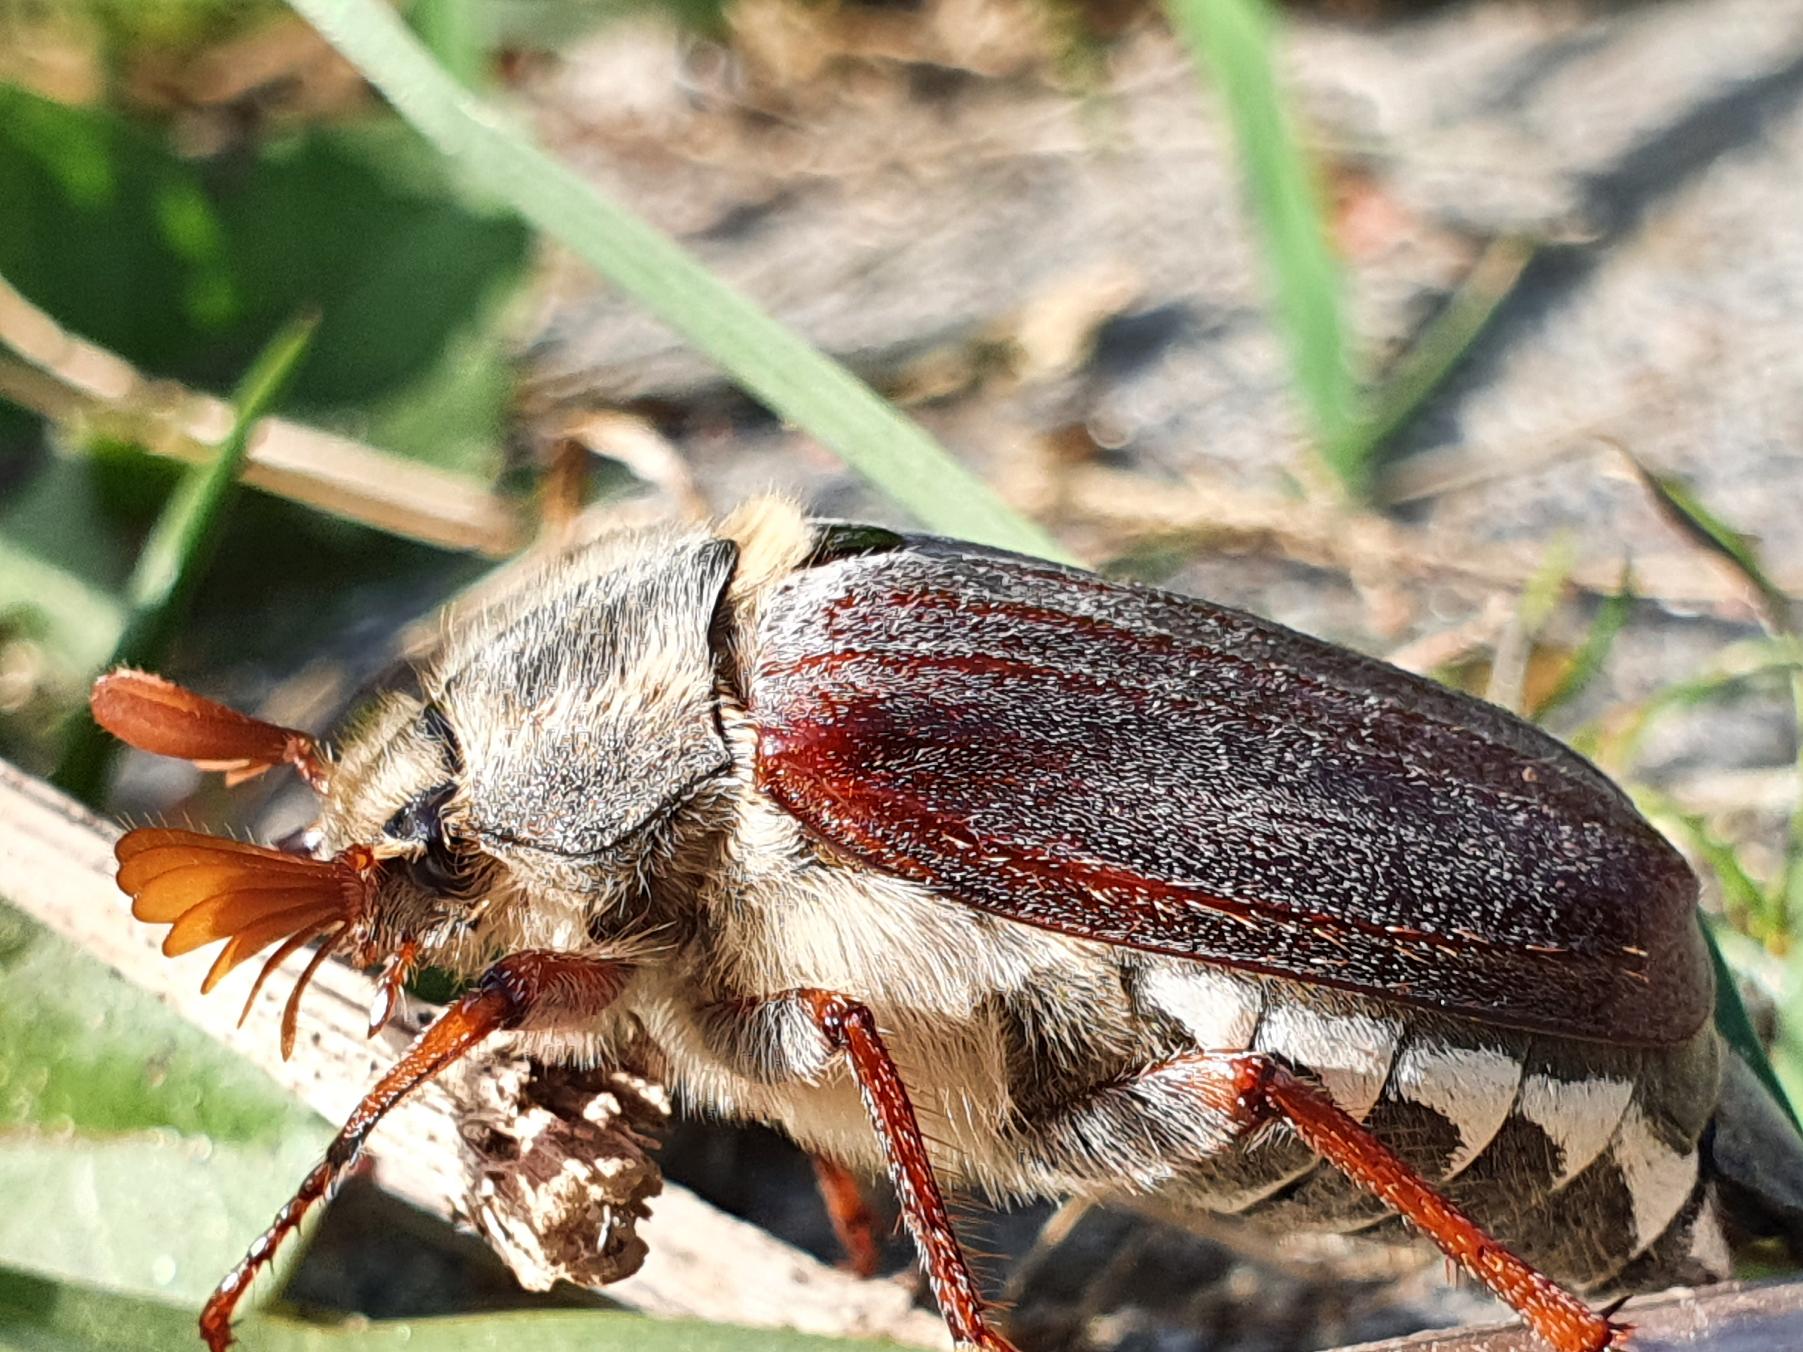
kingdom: Animalia
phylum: Arthropoda
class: Insecta
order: Coleoptera
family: Scarabaeidae
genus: Melolontha
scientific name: Melolontha melolontha
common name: Almindelig oldenborre
